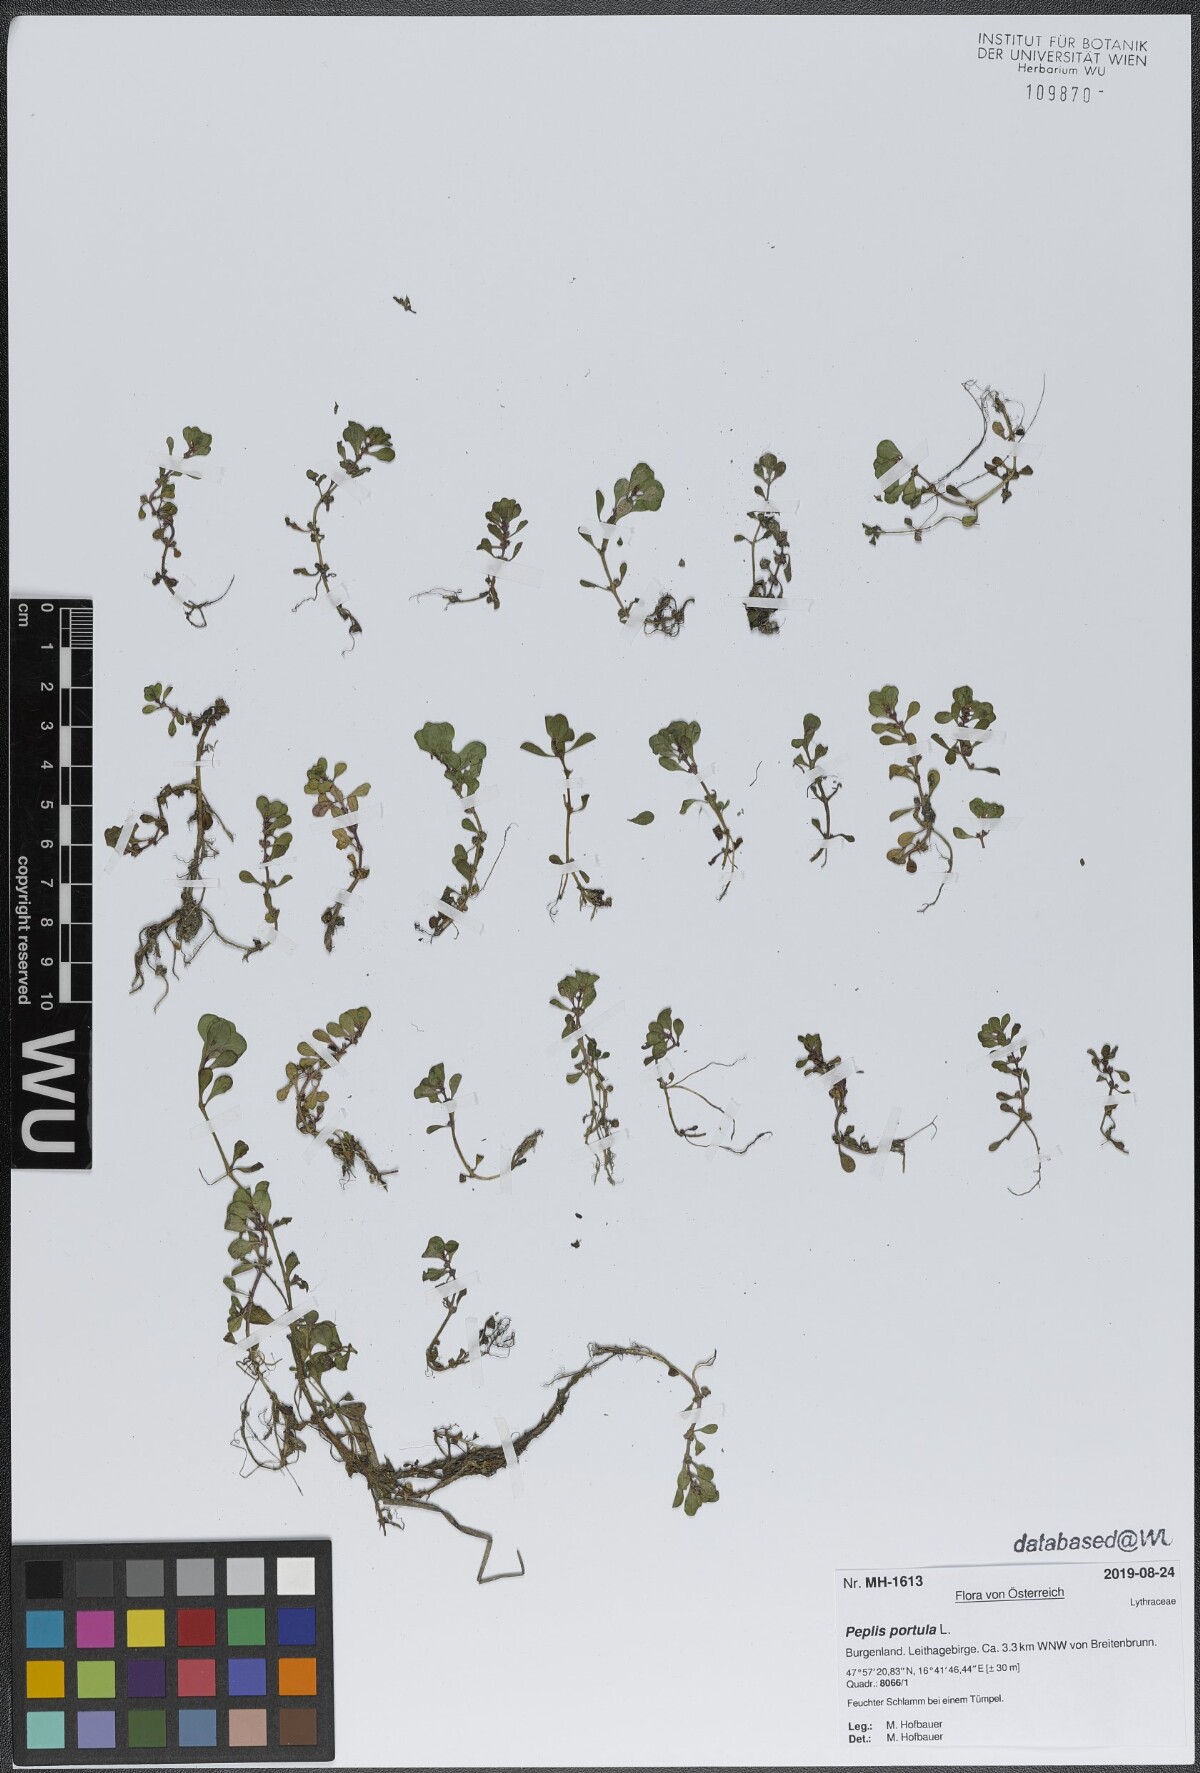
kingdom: Plantae
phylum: Tracheophyta
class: Magnoliopsida
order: Myrtales
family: Lythraceae
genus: Lythrum
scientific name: Lythrum portula
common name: Water purslane
